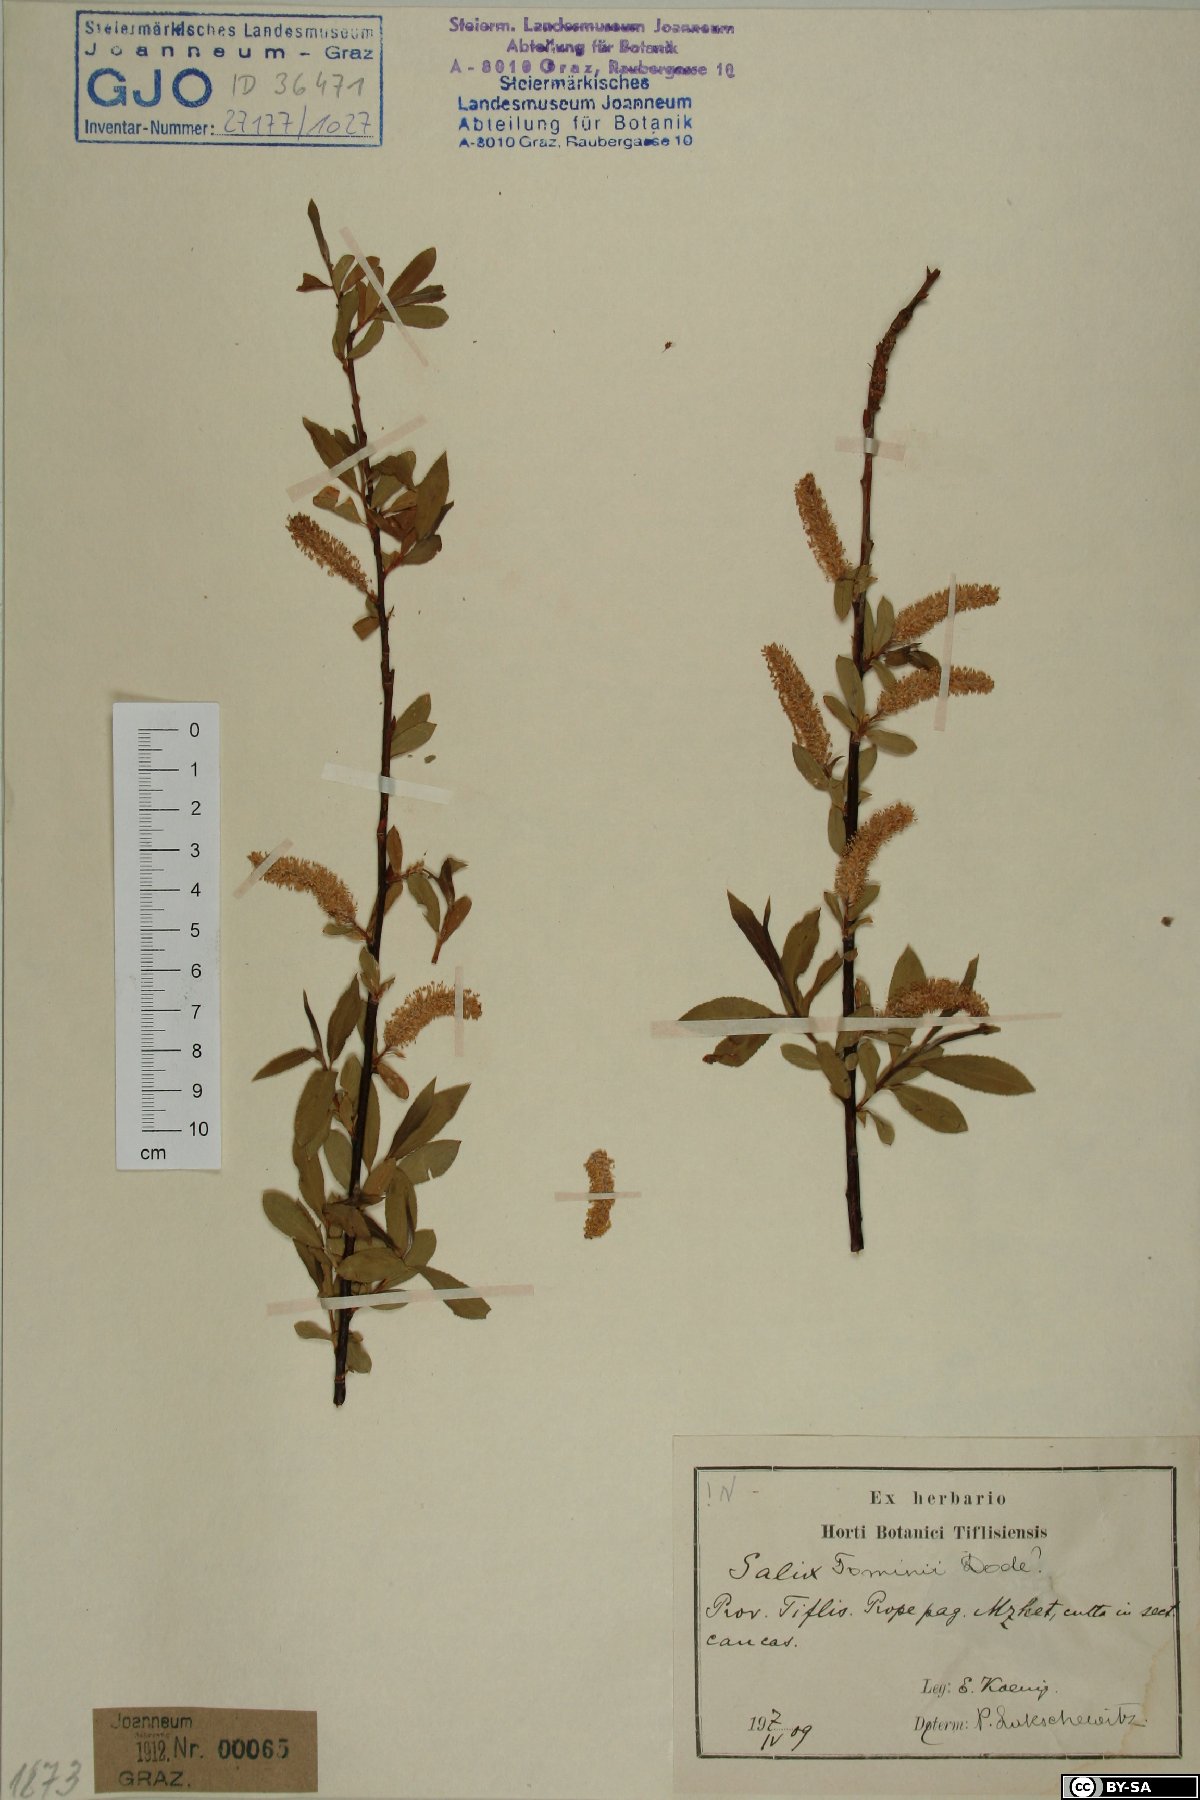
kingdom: Plantae
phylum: Tracheophyta
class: Magnoliopsida
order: Malpighiales
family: Salicaceae
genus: Salix
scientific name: Salix tominii
